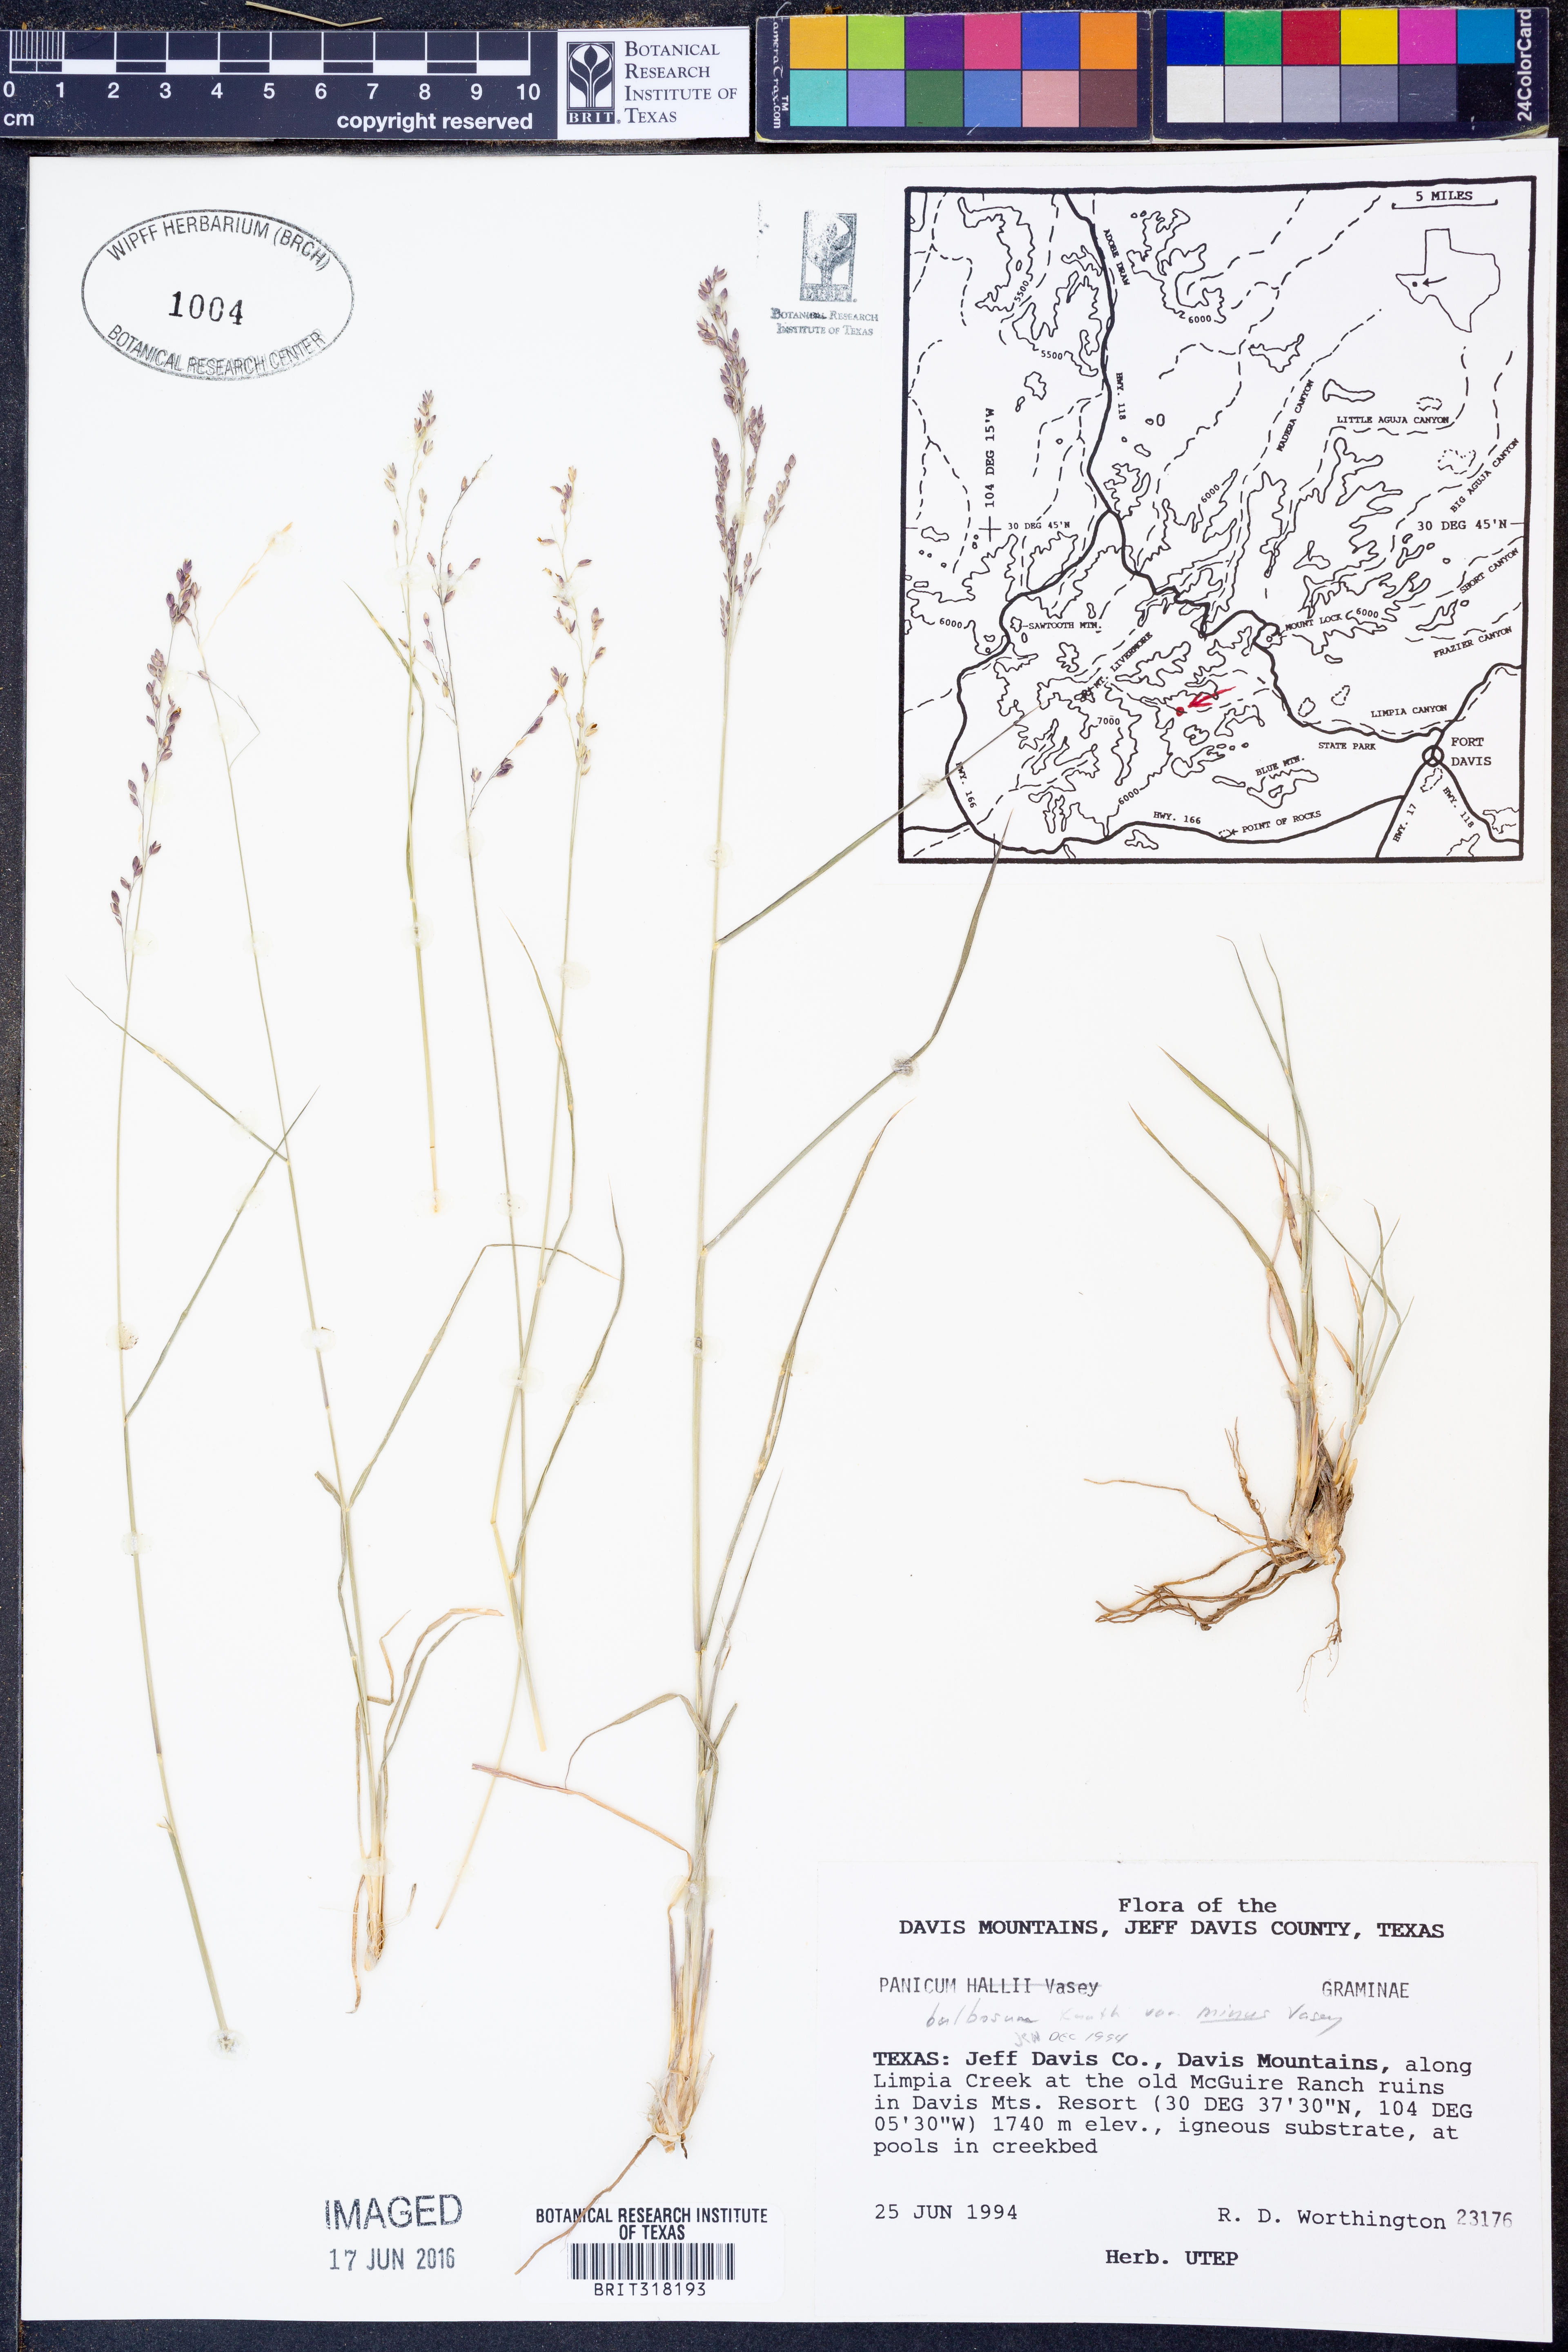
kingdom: Plantae
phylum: Tracheophyta
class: Liliopsida
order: Poales
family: Poaceae
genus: Zuloagaea
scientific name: Zuloagaea bulbosa
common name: Canyon panic grass
